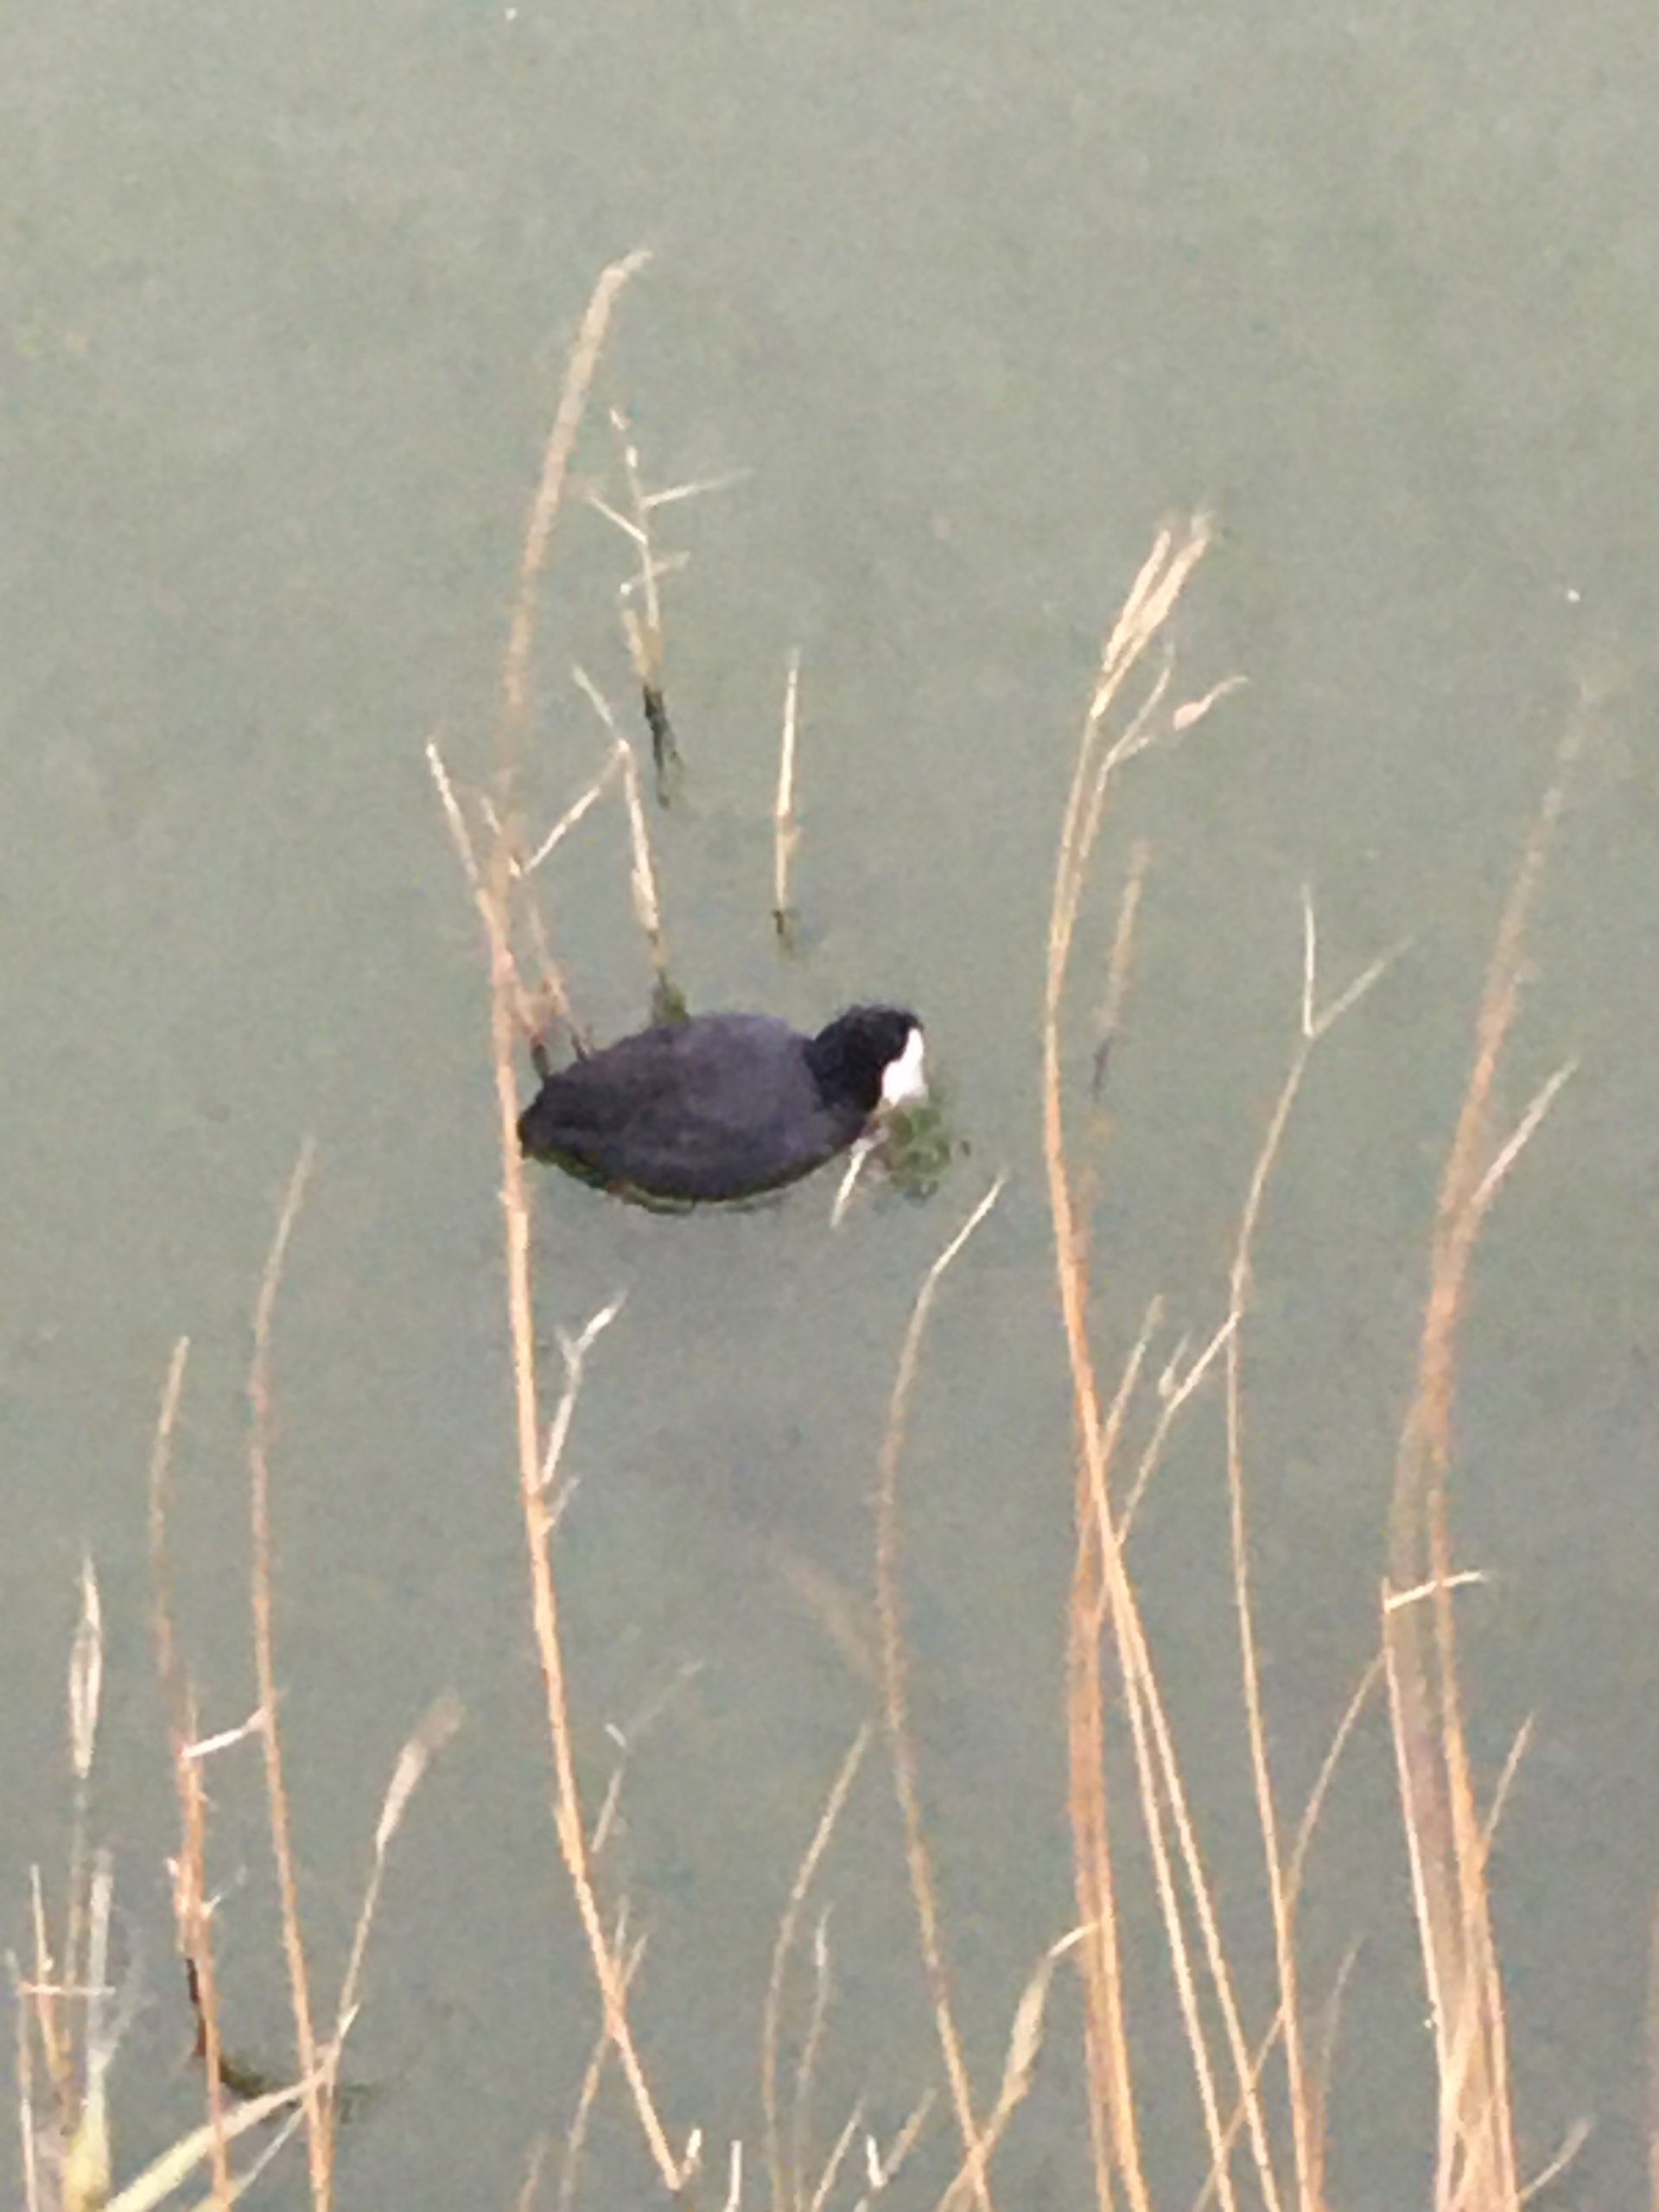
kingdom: Animalia
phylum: Chordata
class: Aves
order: Gruiformes
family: Rallidae
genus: Fulica
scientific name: Fulica atra
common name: Blishøne
